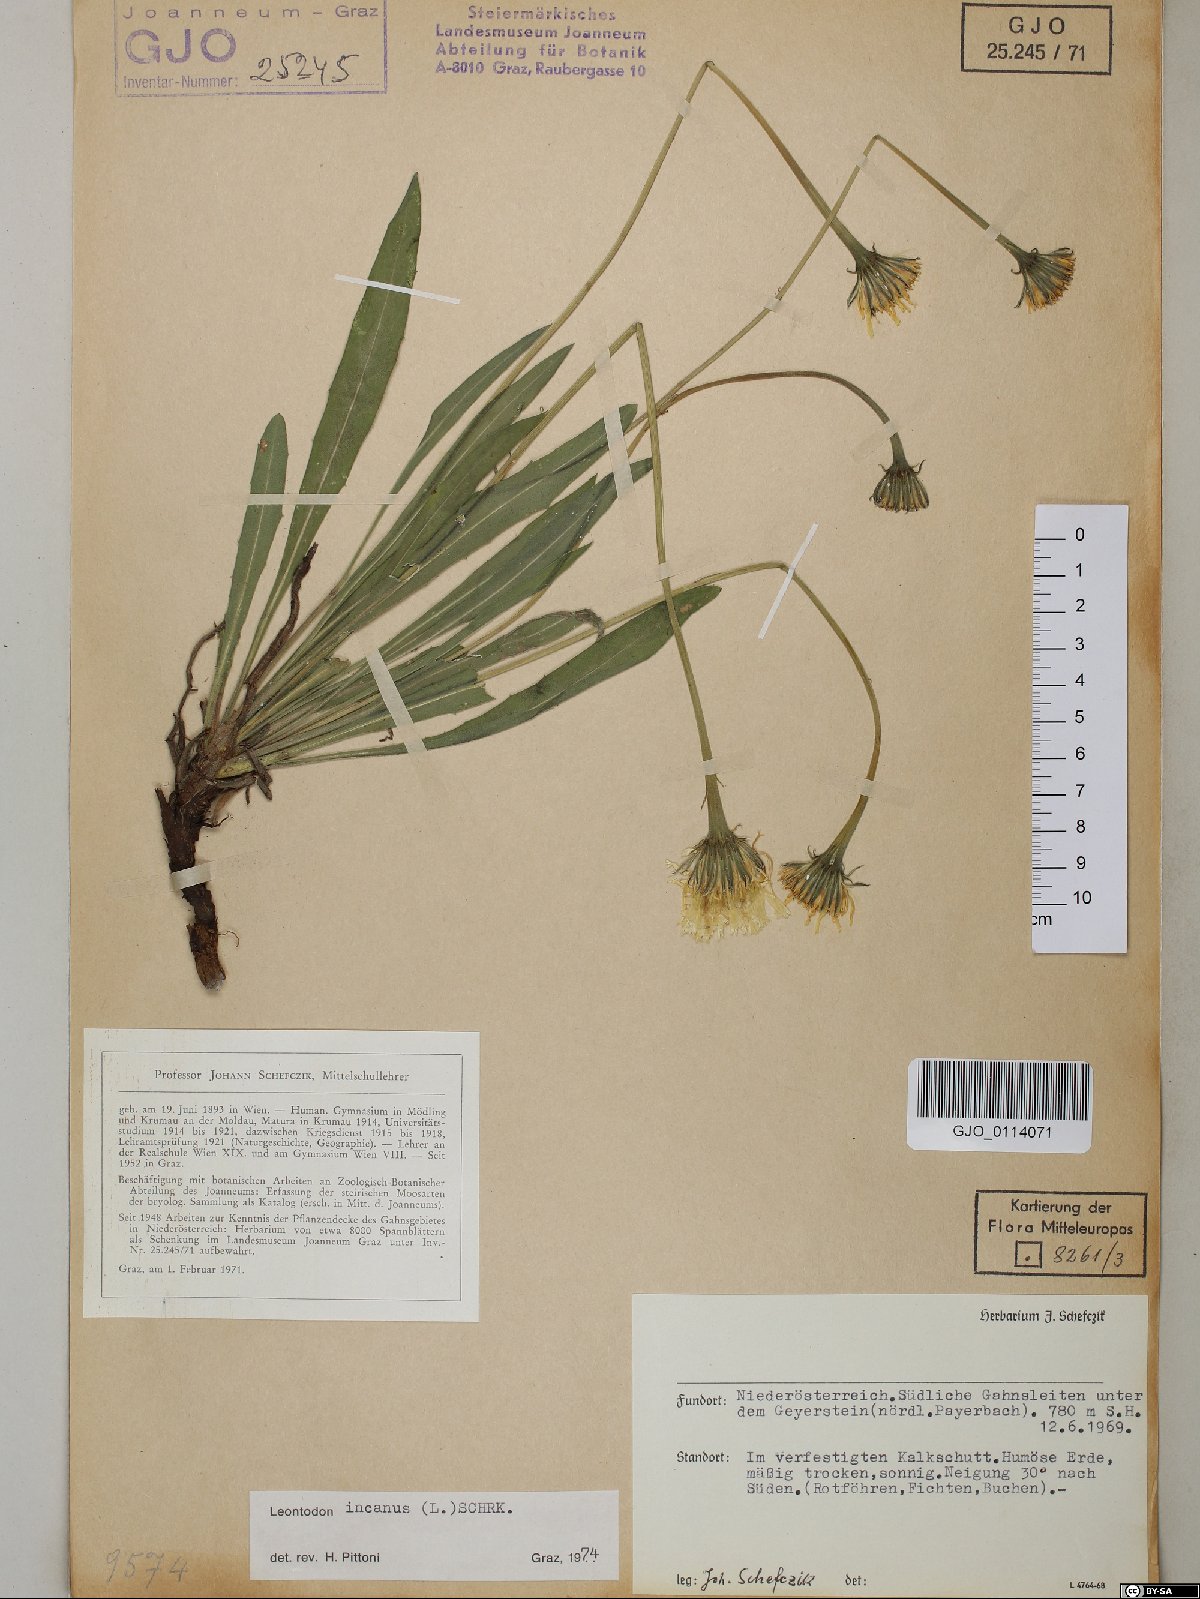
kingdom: Plantae
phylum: Tracheophyta
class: Magnoliopsida
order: Asterales
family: Asteraceae
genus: Leontodon
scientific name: Leontodon incanus
